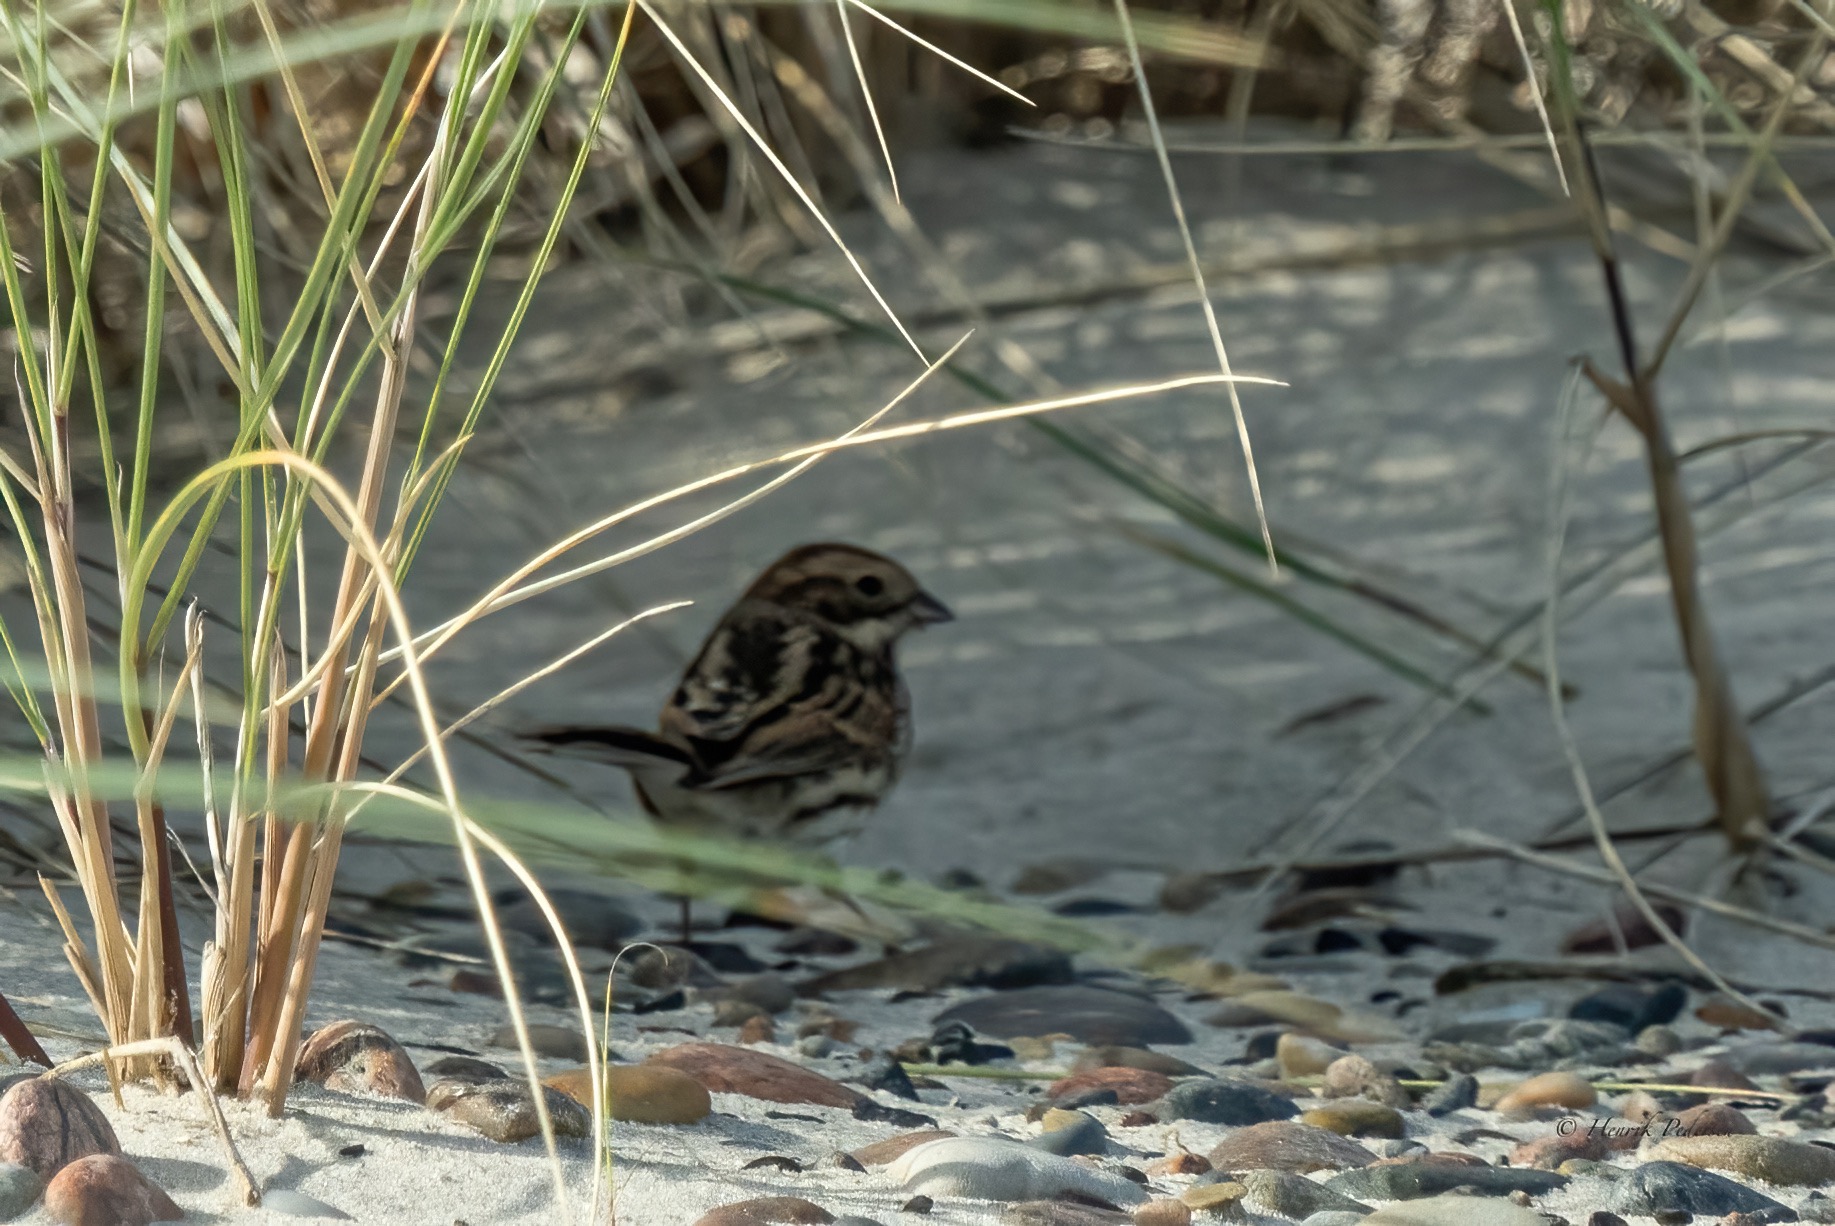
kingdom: Animalia
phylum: Chordata
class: Aves
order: Passeriformes
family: Emberizidae
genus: Emberiza
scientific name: Emberiza schoeniclus
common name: Rørspurv
